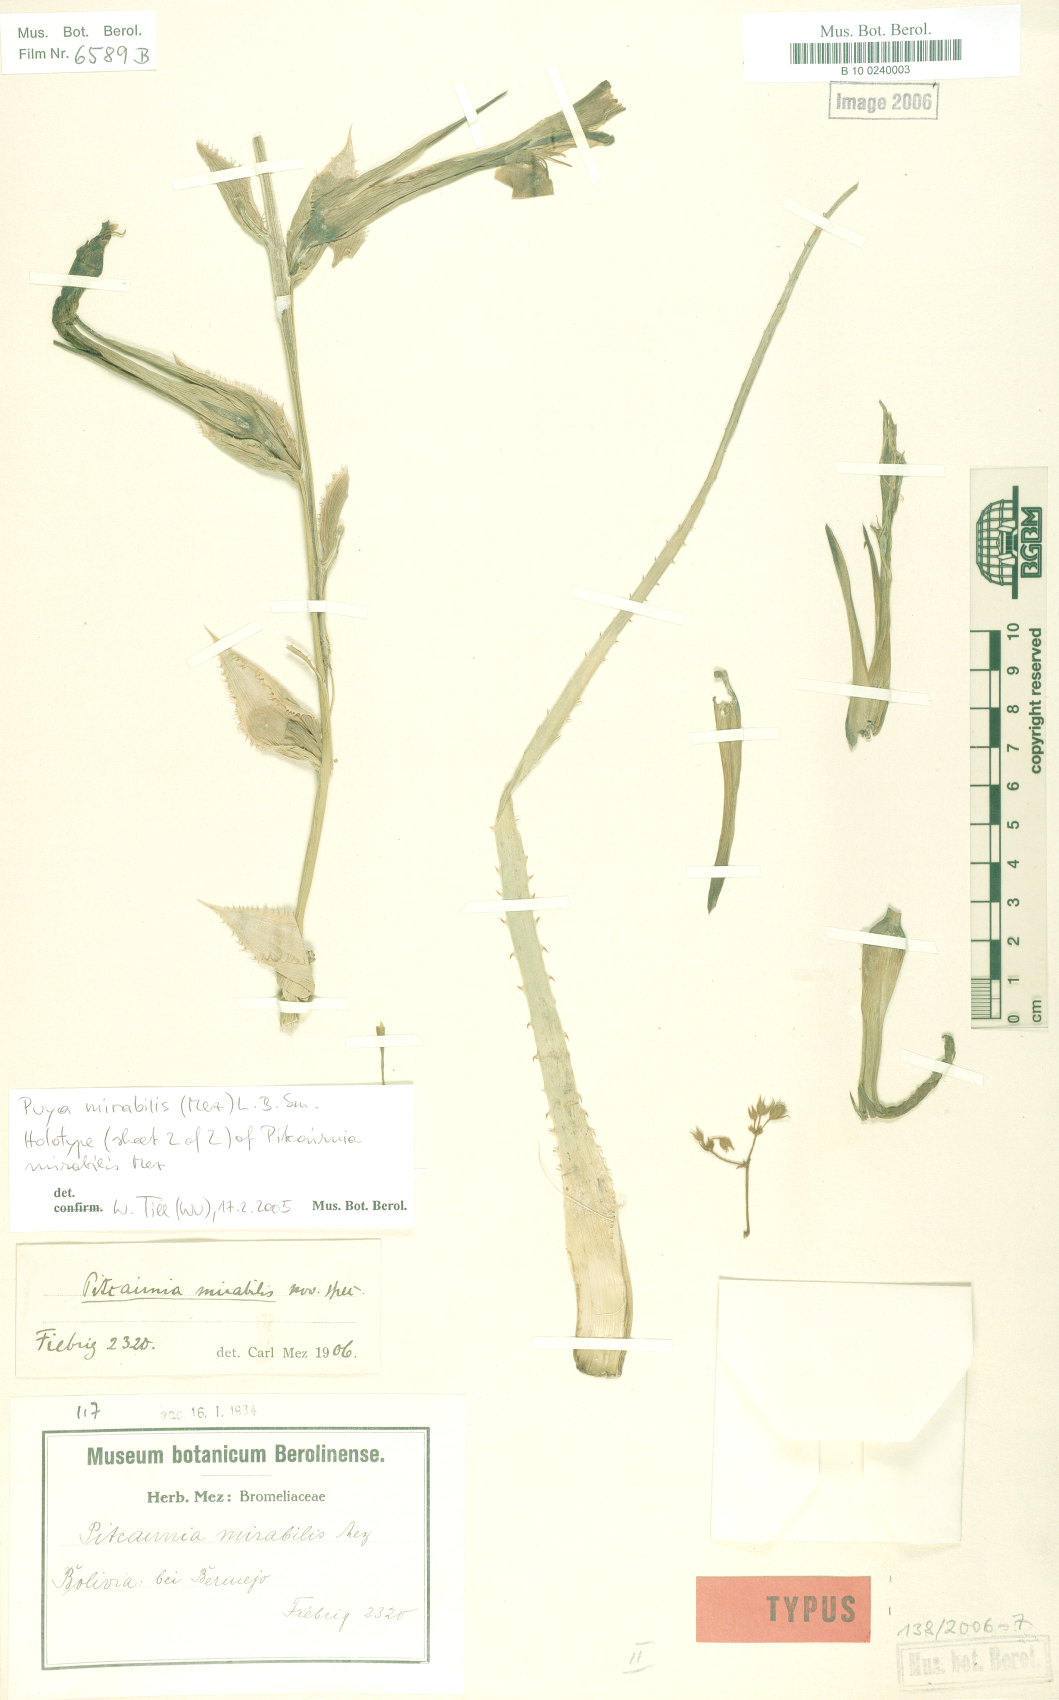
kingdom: Plantae
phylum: Tracheophyta
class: Liliopsida
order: Poales
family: Bromeliaceae
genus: Puya
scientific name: Puya mirabilis
